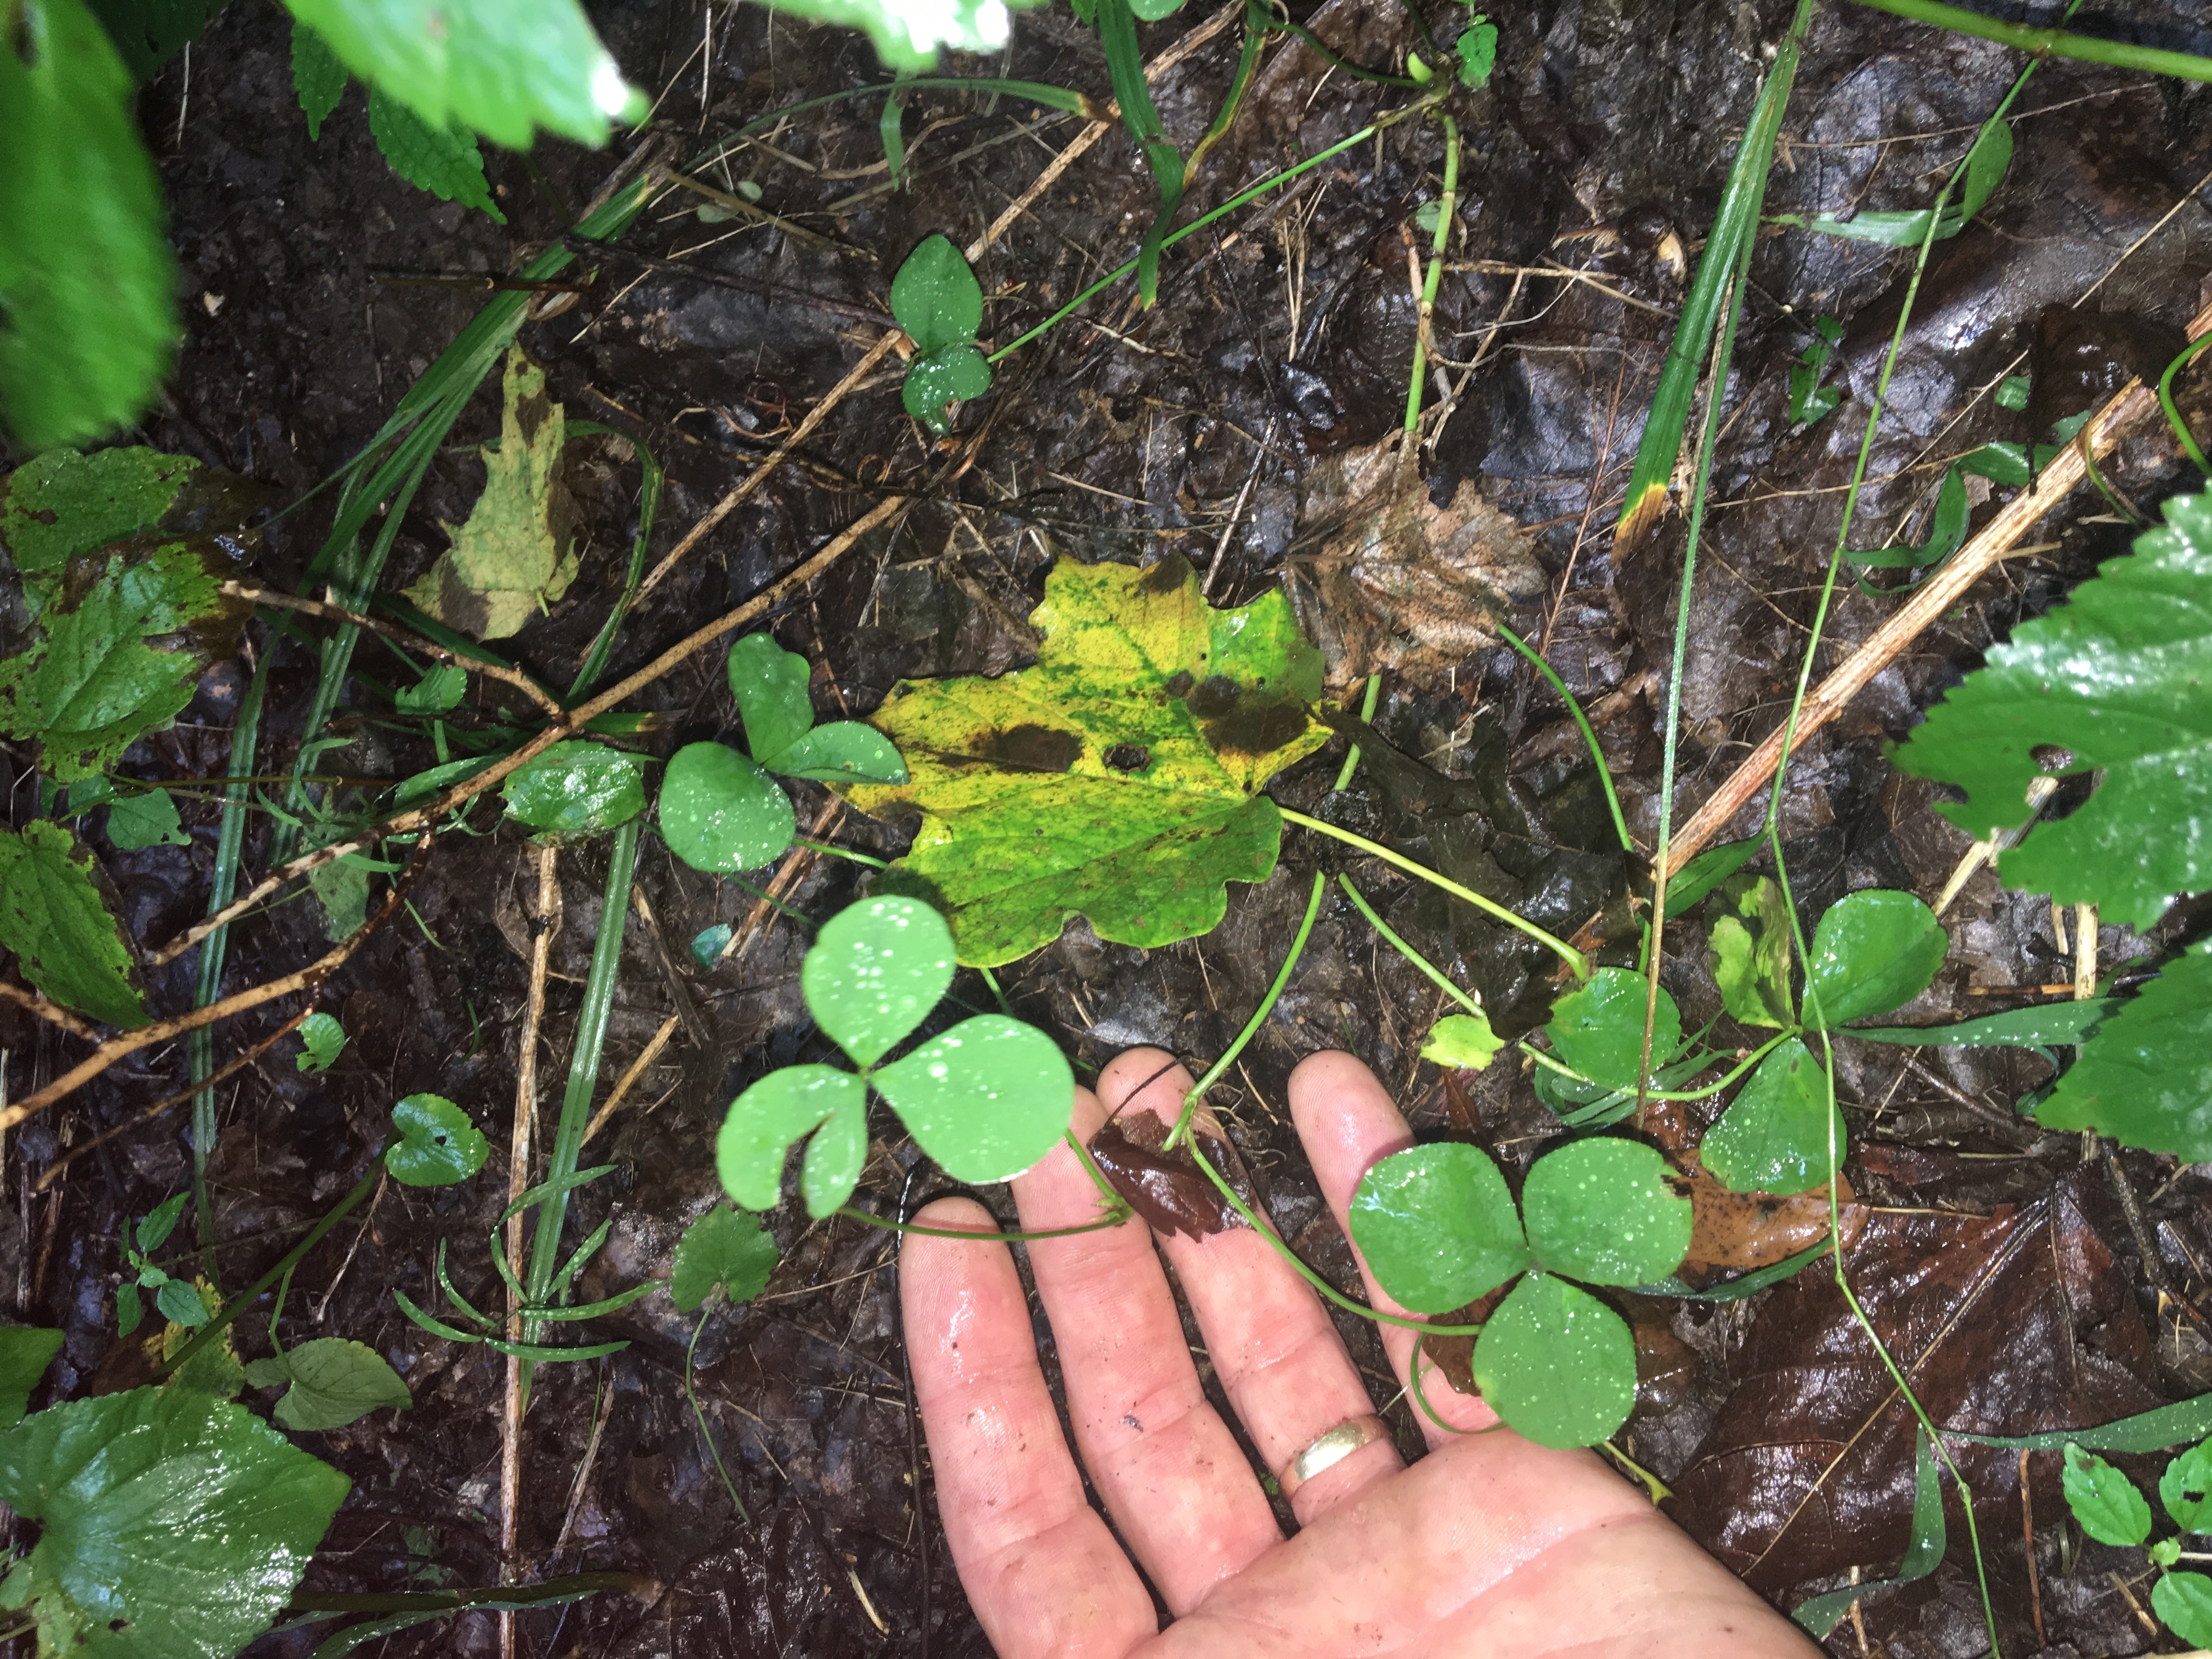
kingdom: Plantae
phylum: Tracheophyta
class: Magnoliopsida
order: Fabales
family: Fabaceae
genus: Trifolium
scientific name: Trifolium stoloniferum
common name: Running Buffalo Clover
